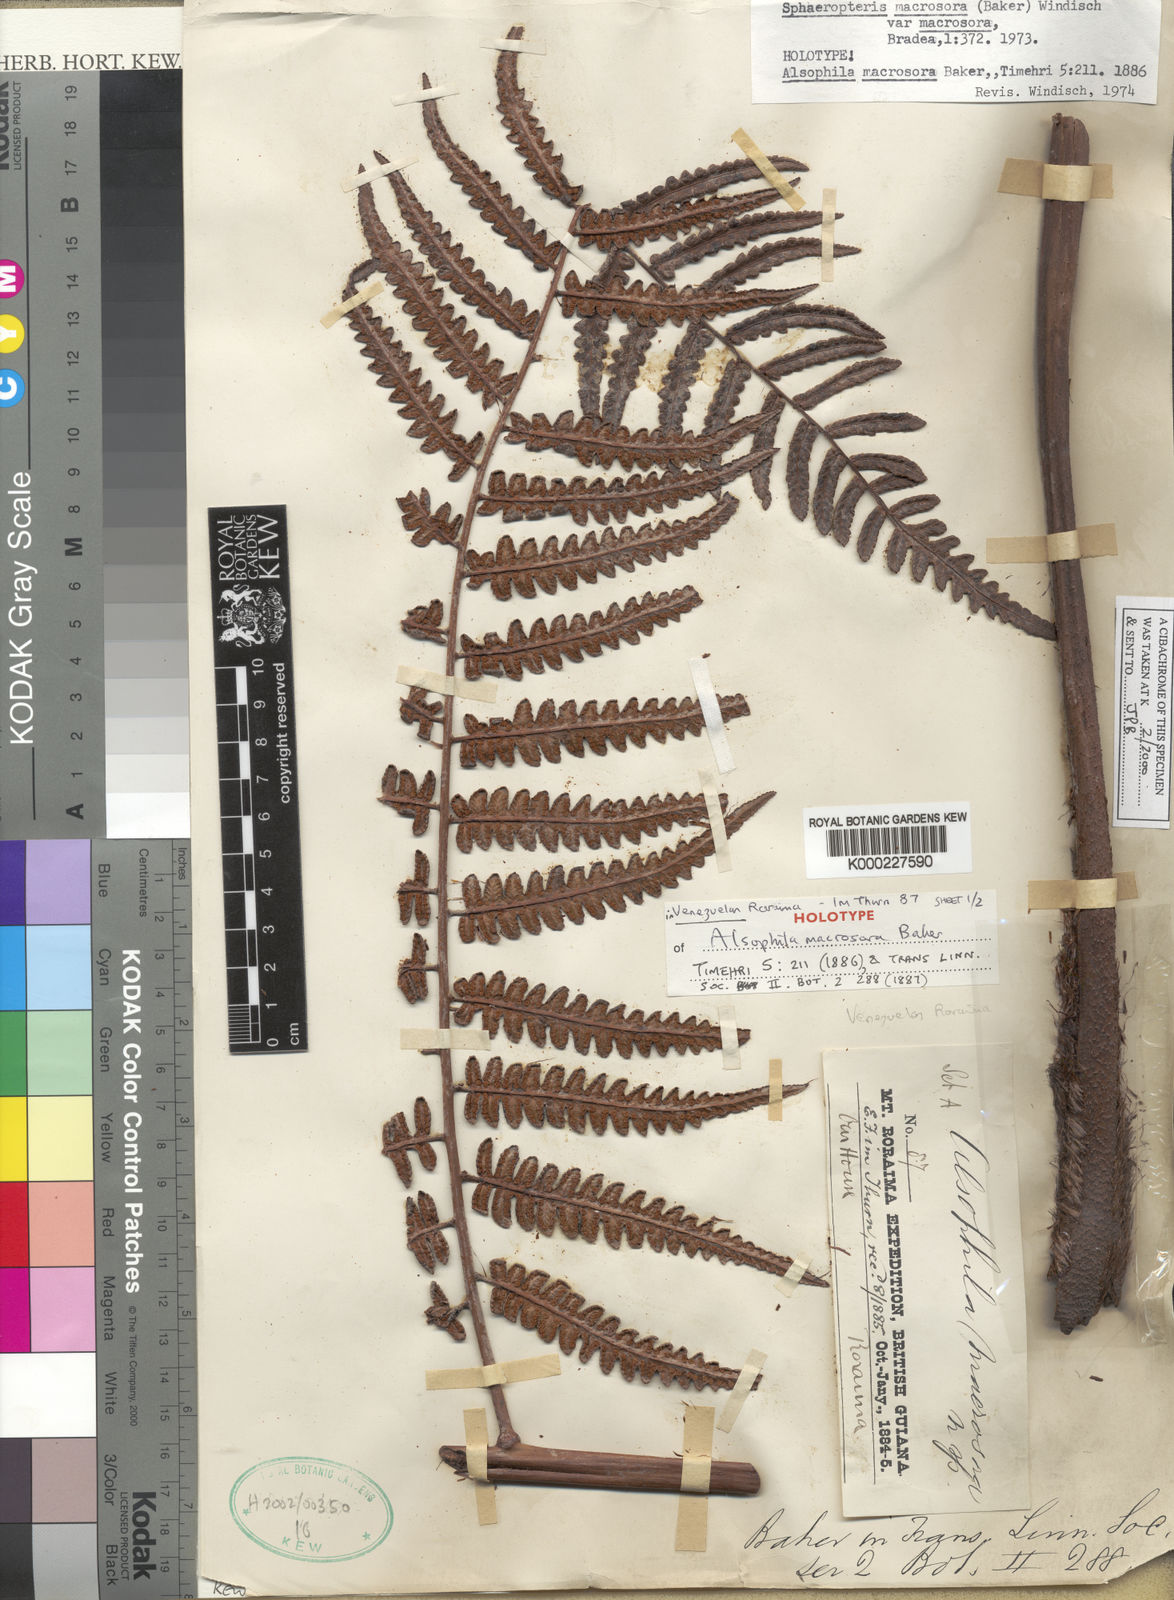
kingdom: Plantae
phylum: Tracheophyta
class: Polypodiopsida
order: Cyatheales
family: Cyatheaceae
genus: Cyathea
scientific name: Cyathea macrosora
